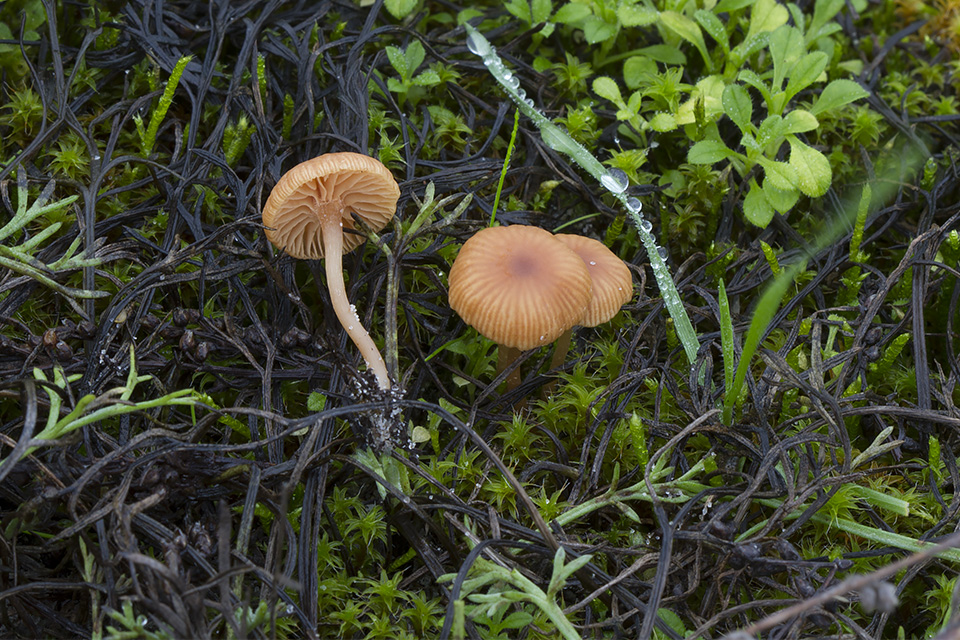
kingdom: Fungi
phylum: Basidiomycota
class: Agaricomycetes
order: Agaricales
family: Tubariaceae
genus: Tubaria
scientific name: Tubaria furfuracea
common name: kliddet fnughat
